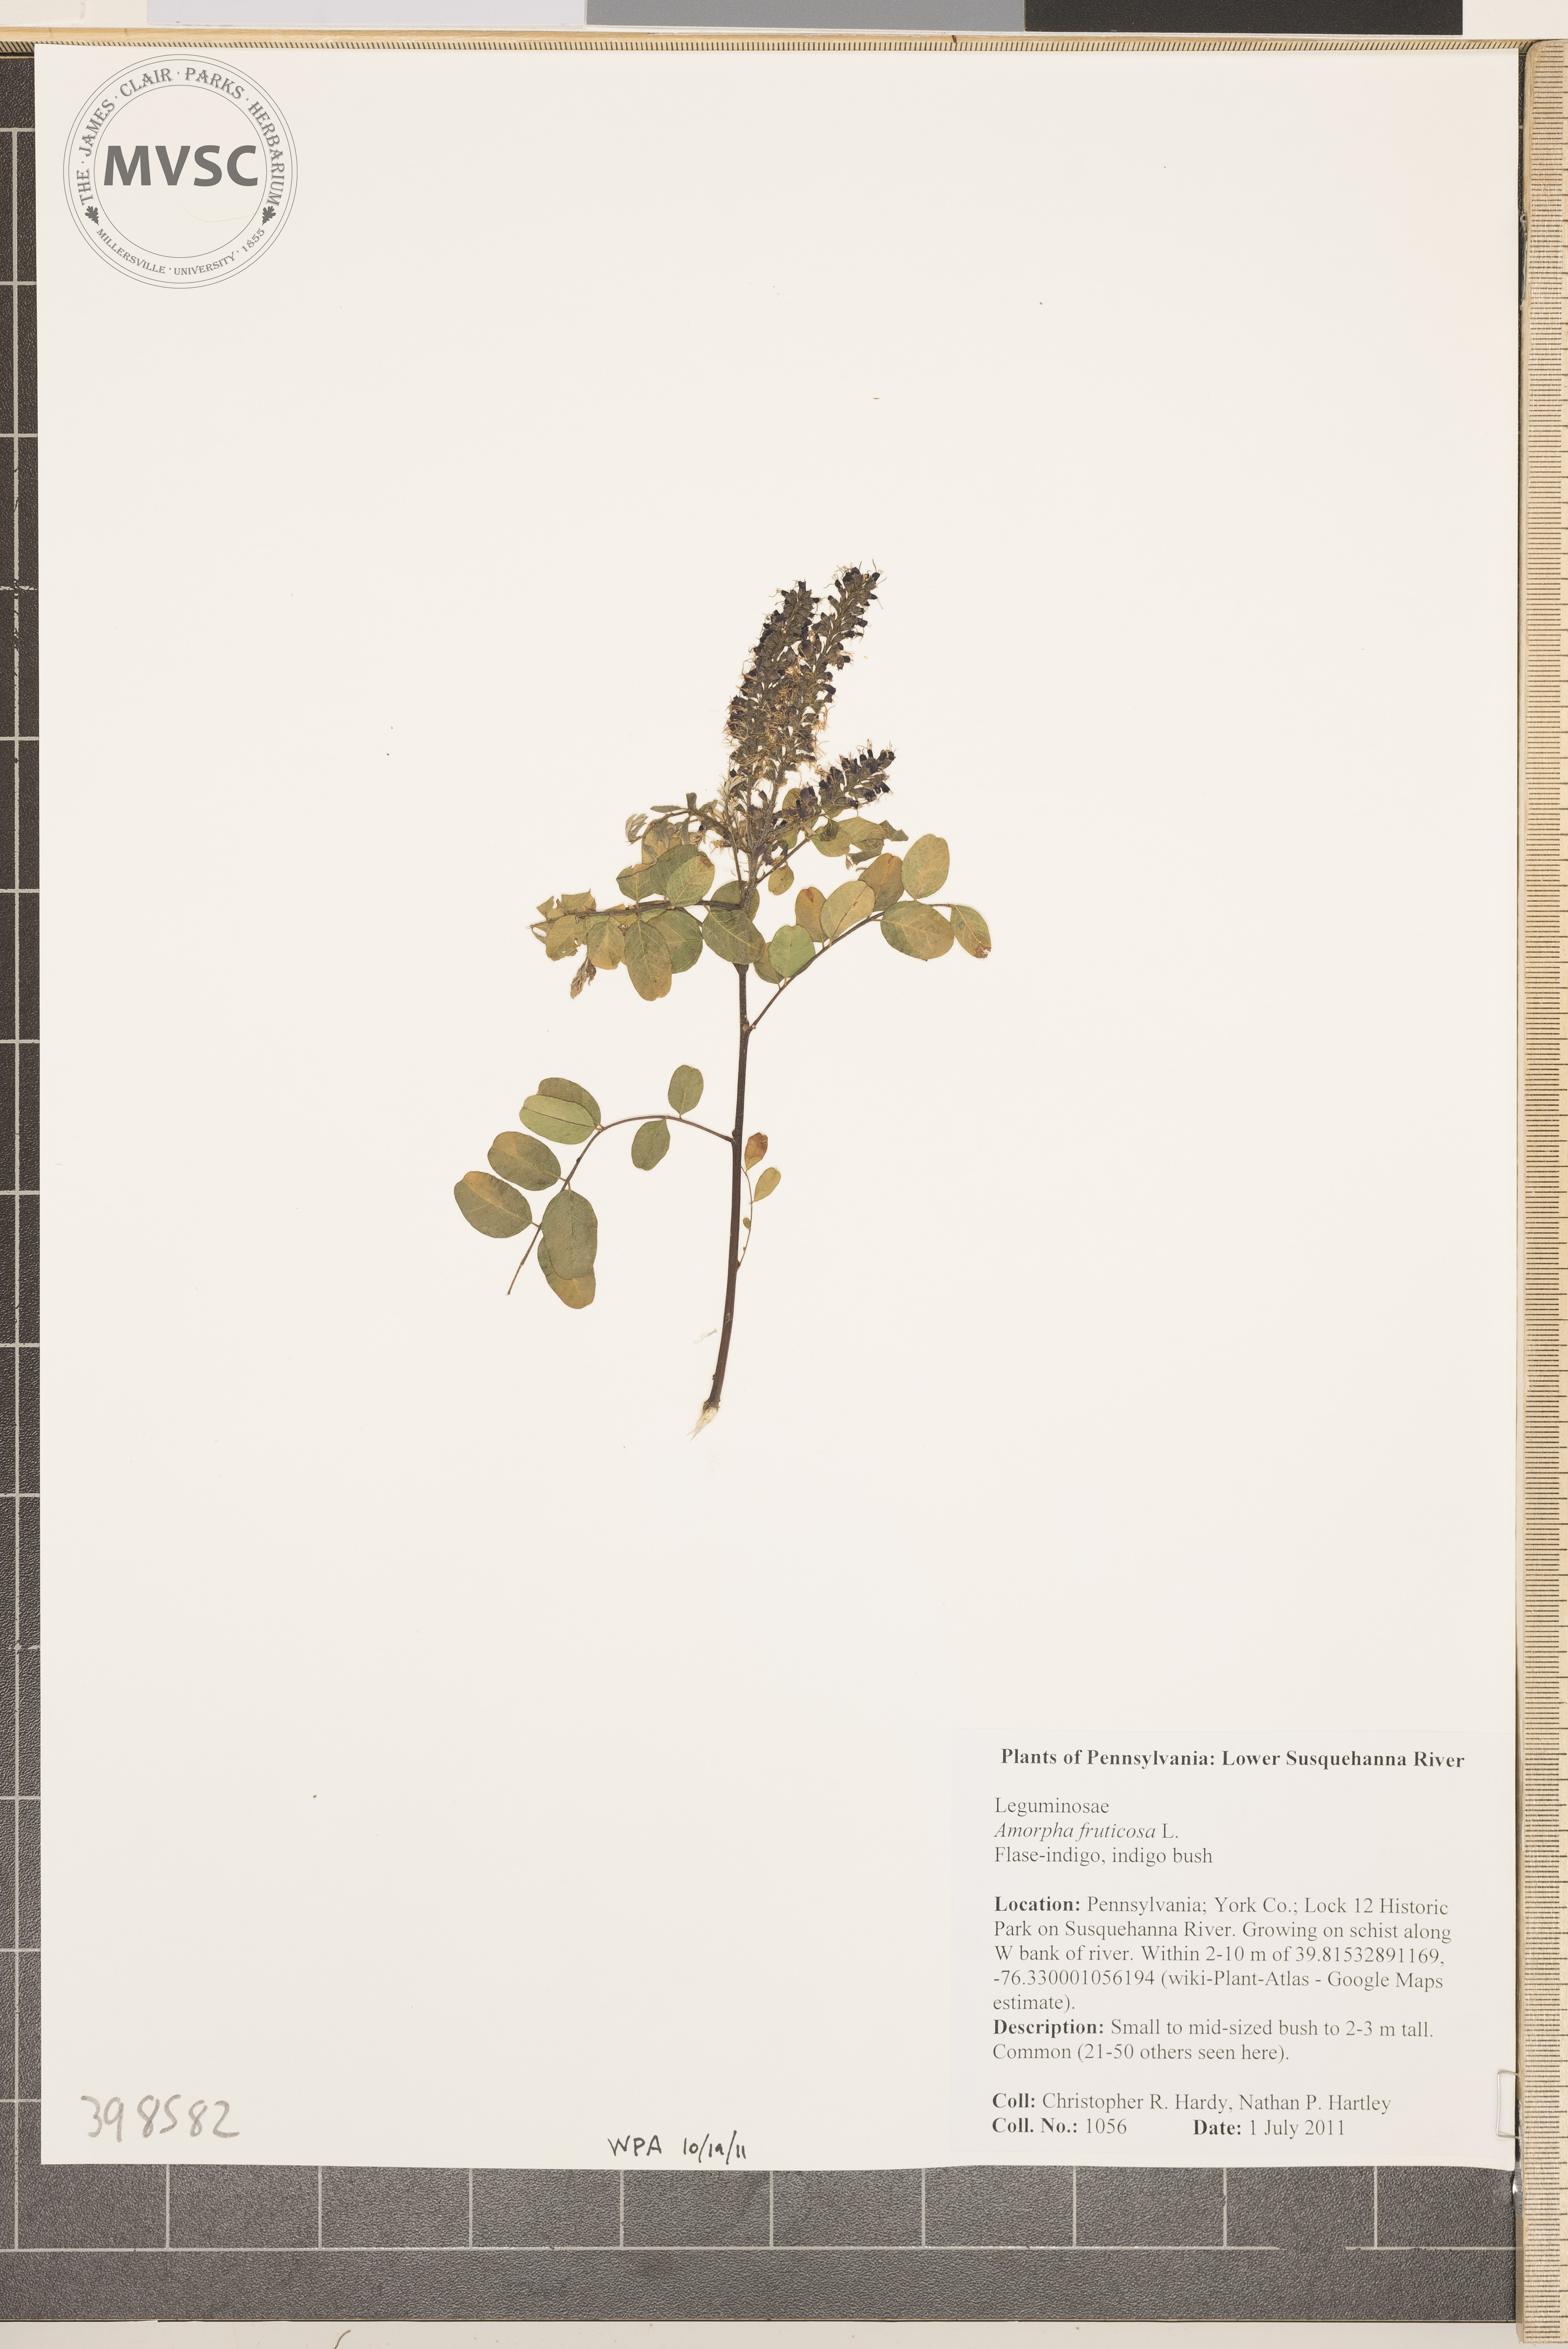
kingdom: Plantae
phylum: Tracheophyta
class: Magnoliopsida
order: Fabales
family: Fabaceae
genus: Amorpha
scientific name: Amorpha fruticosa
